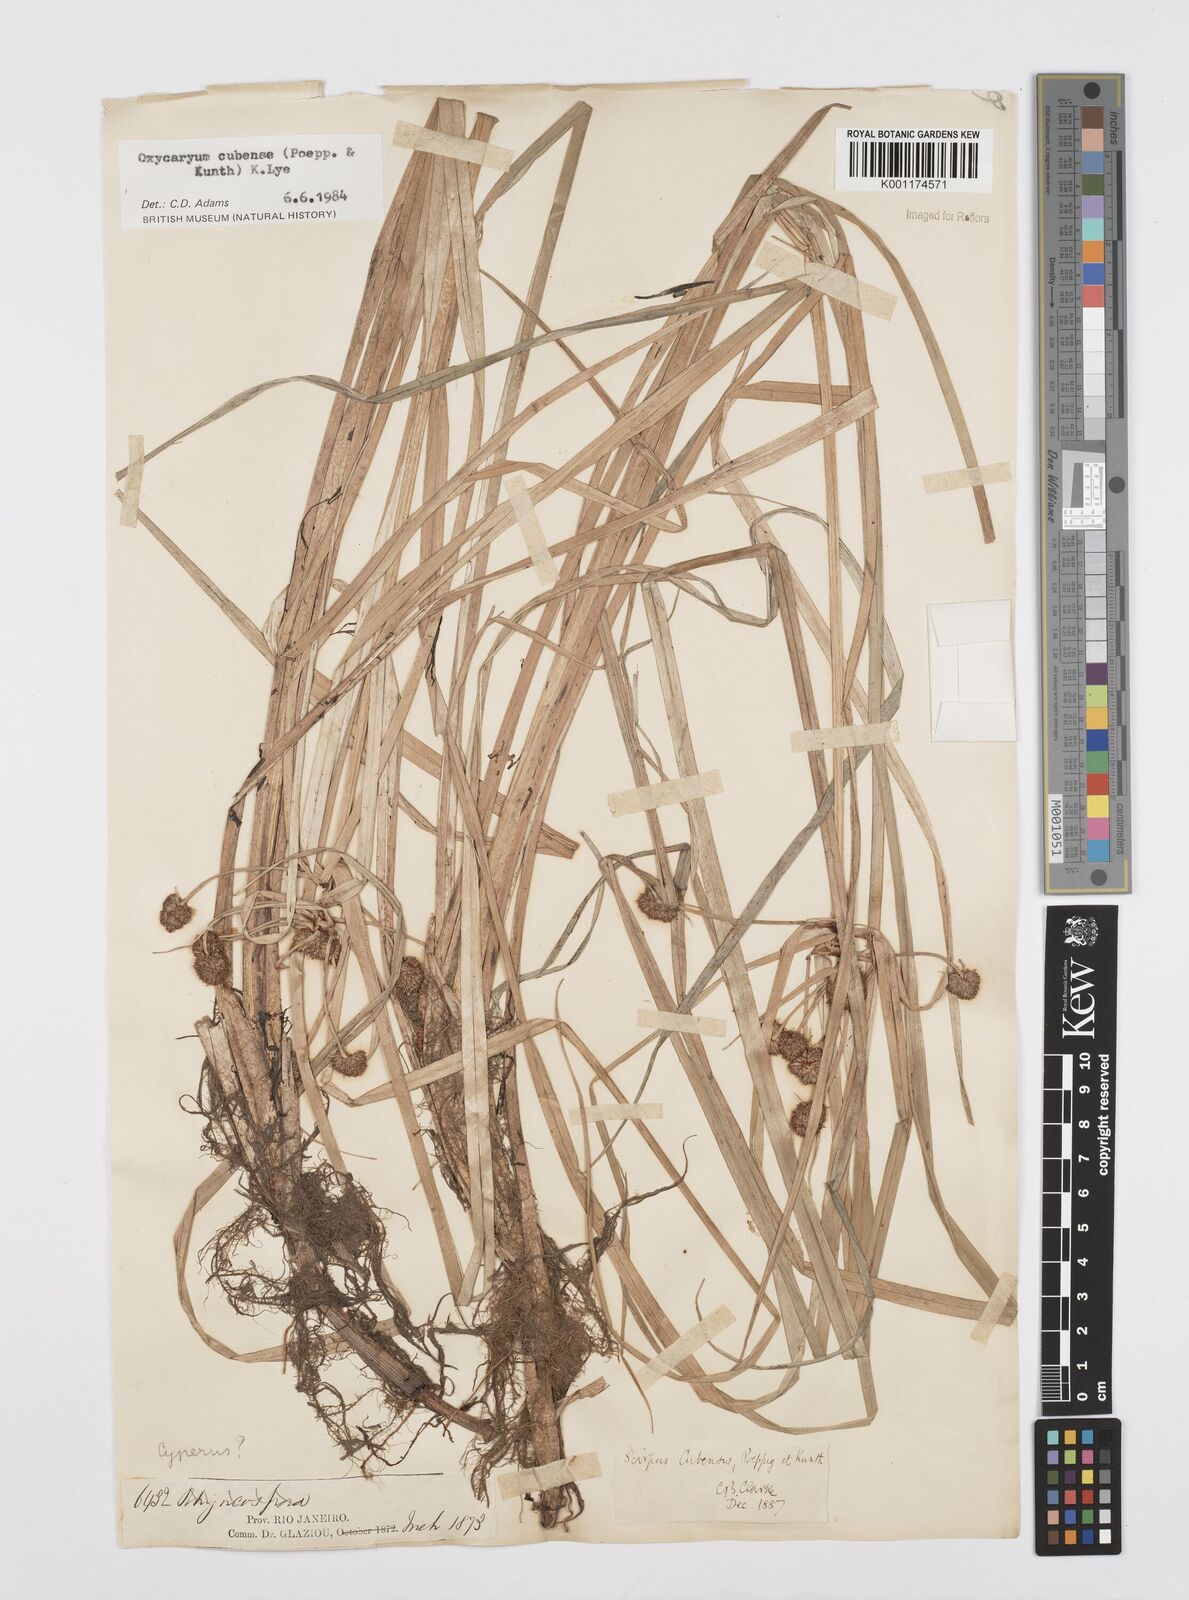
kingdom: Plantae
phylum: Tracheophyta
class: Liliopsida
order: Poales
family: Cyperaceae
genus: Cyperus
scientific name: Cyperus elegans
